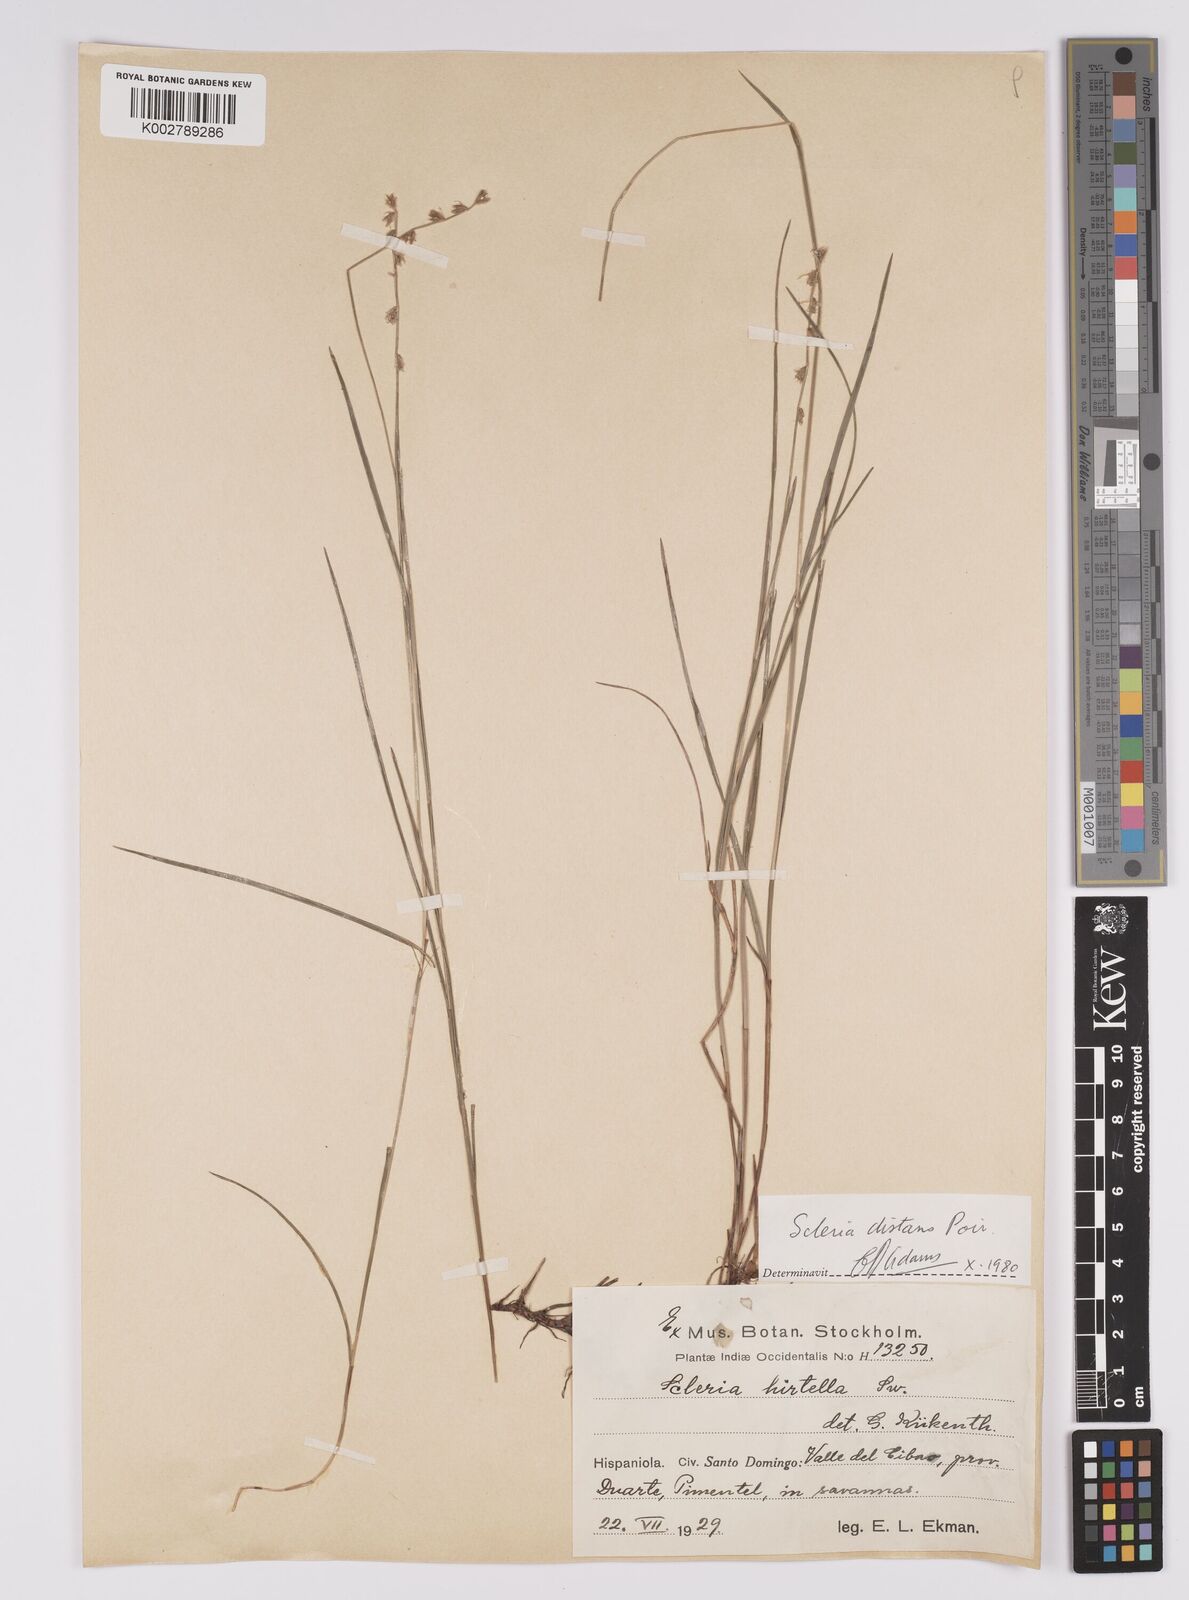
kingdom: Plantae
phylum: Tracheophyta
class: Liliopsida
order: Poales
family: Cyperaceae
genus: Scleria
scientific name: Scleria distans
